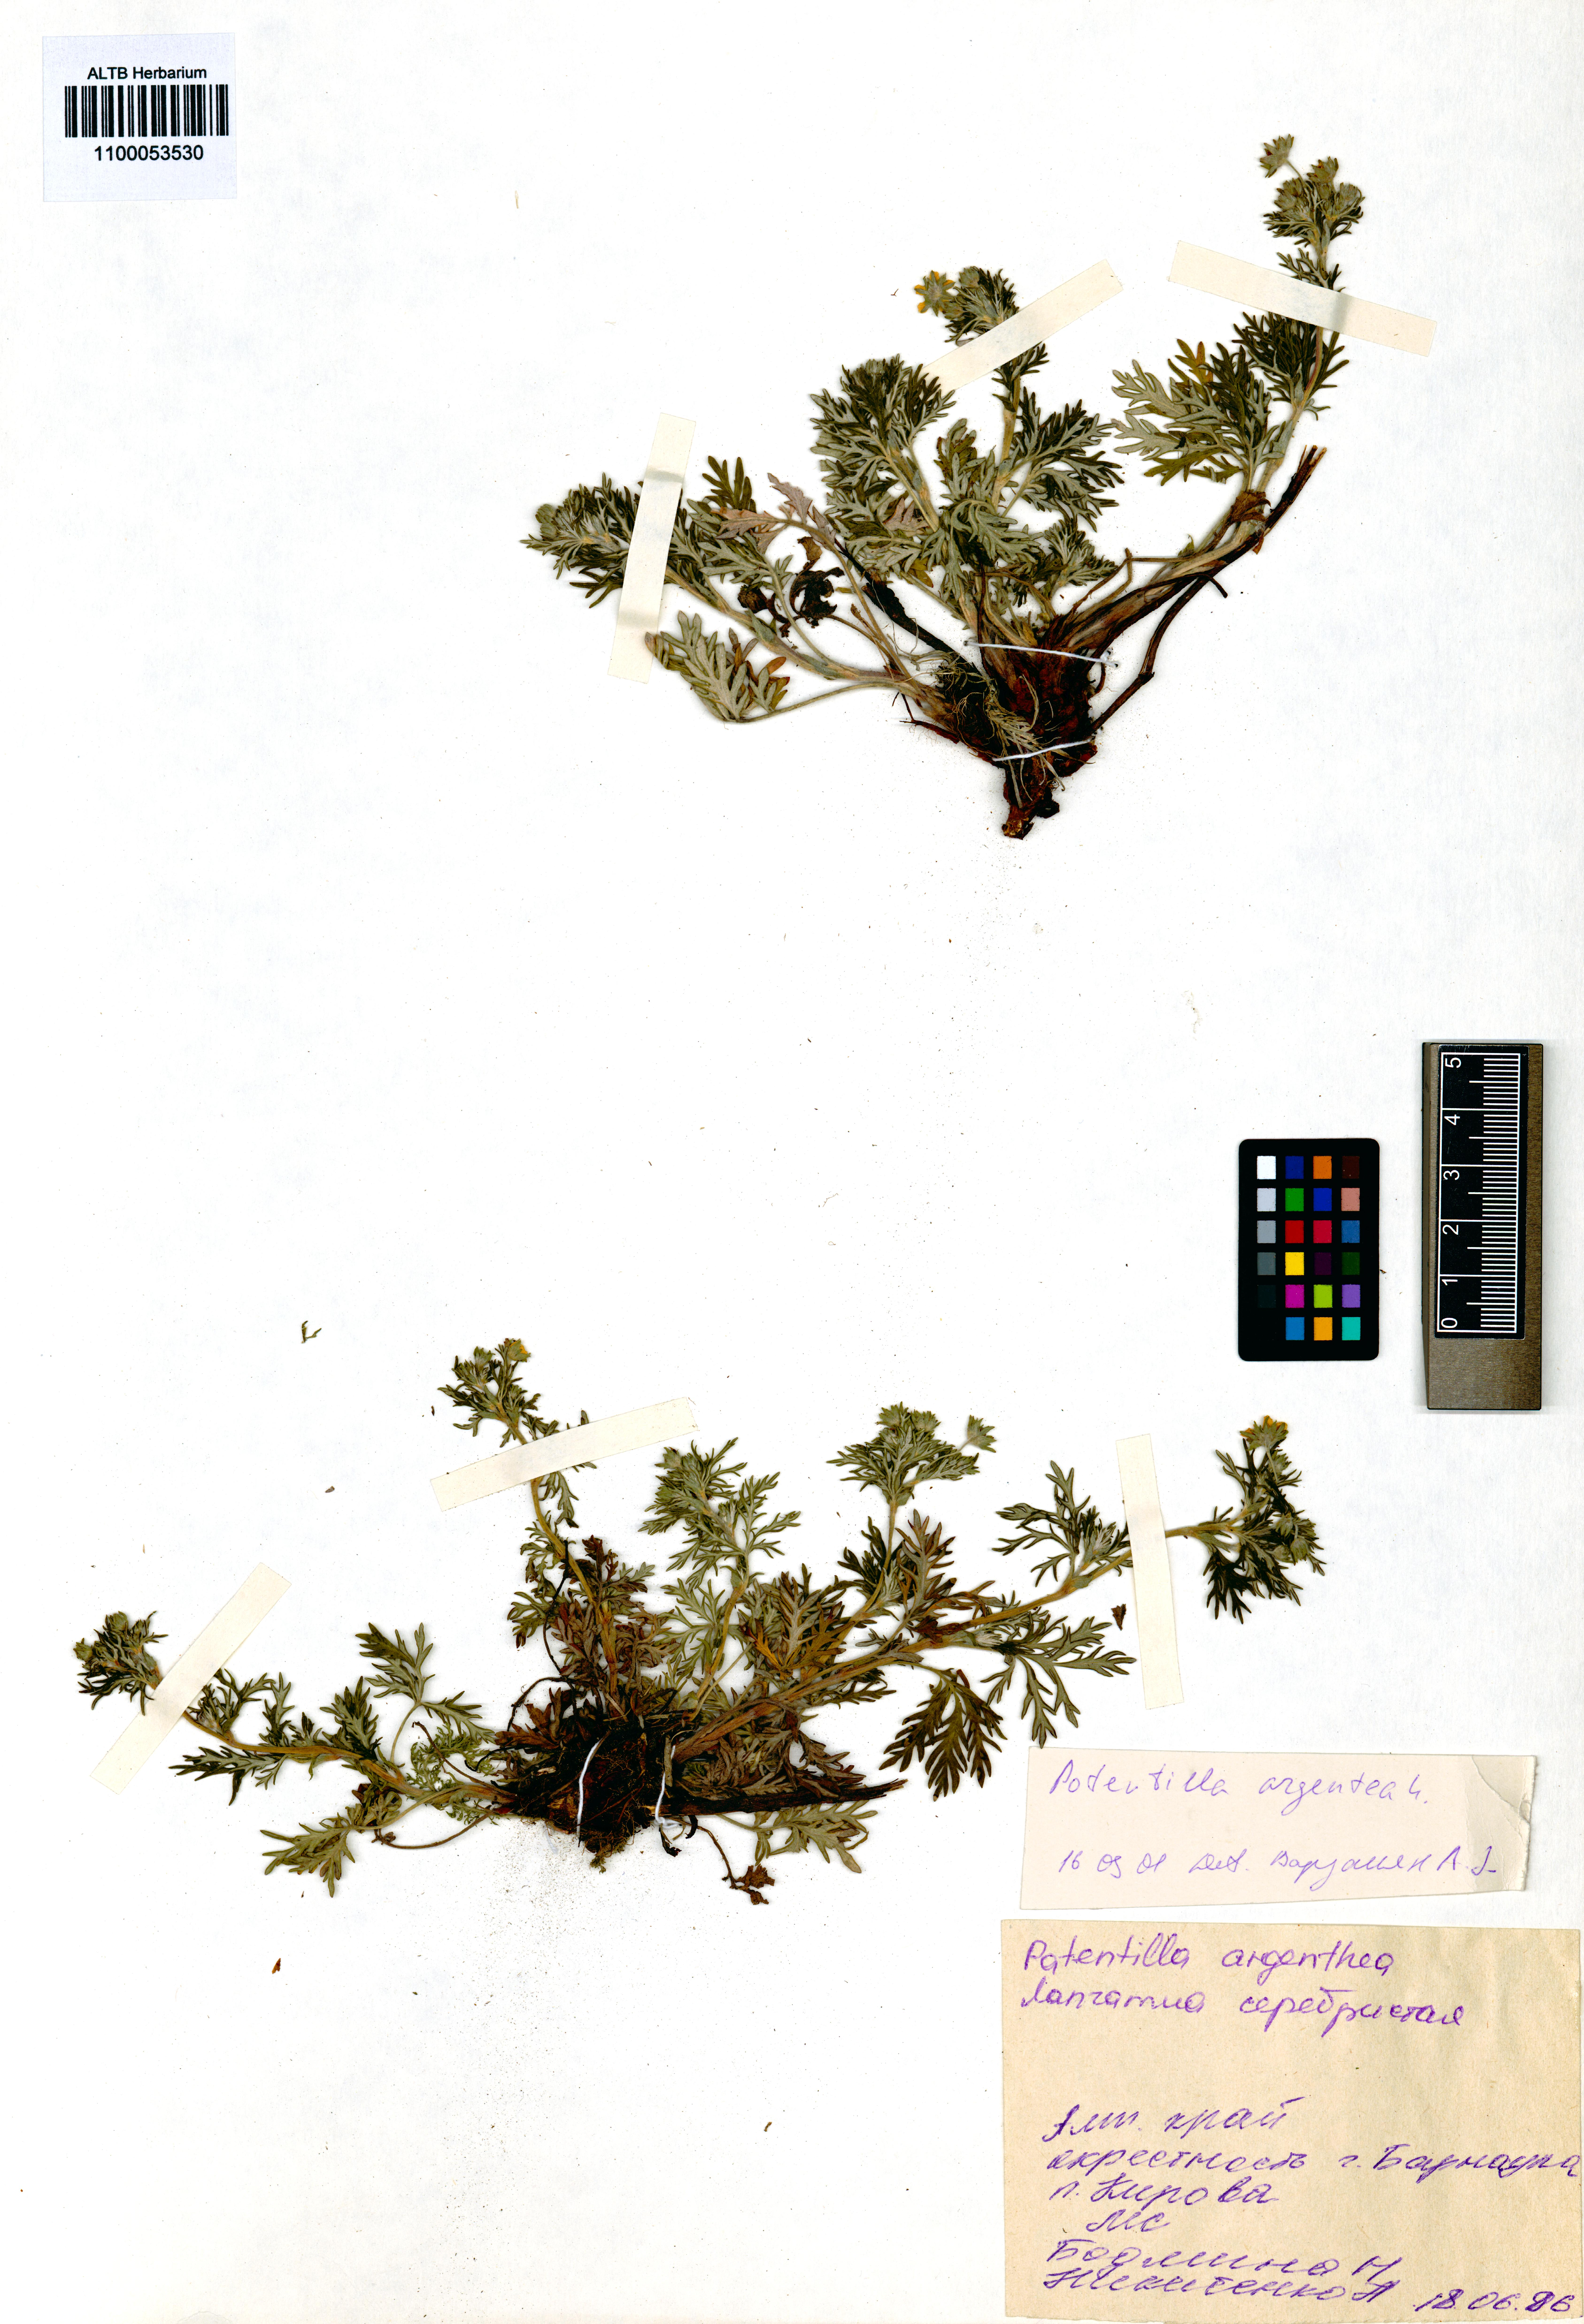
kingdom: Plantae
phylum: Tracheophyta
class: Magnoliopsida
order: Rosales
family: Rosaceae
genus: Potentilla
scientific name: Potentilla argentea
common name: Hoary cinquefoil
